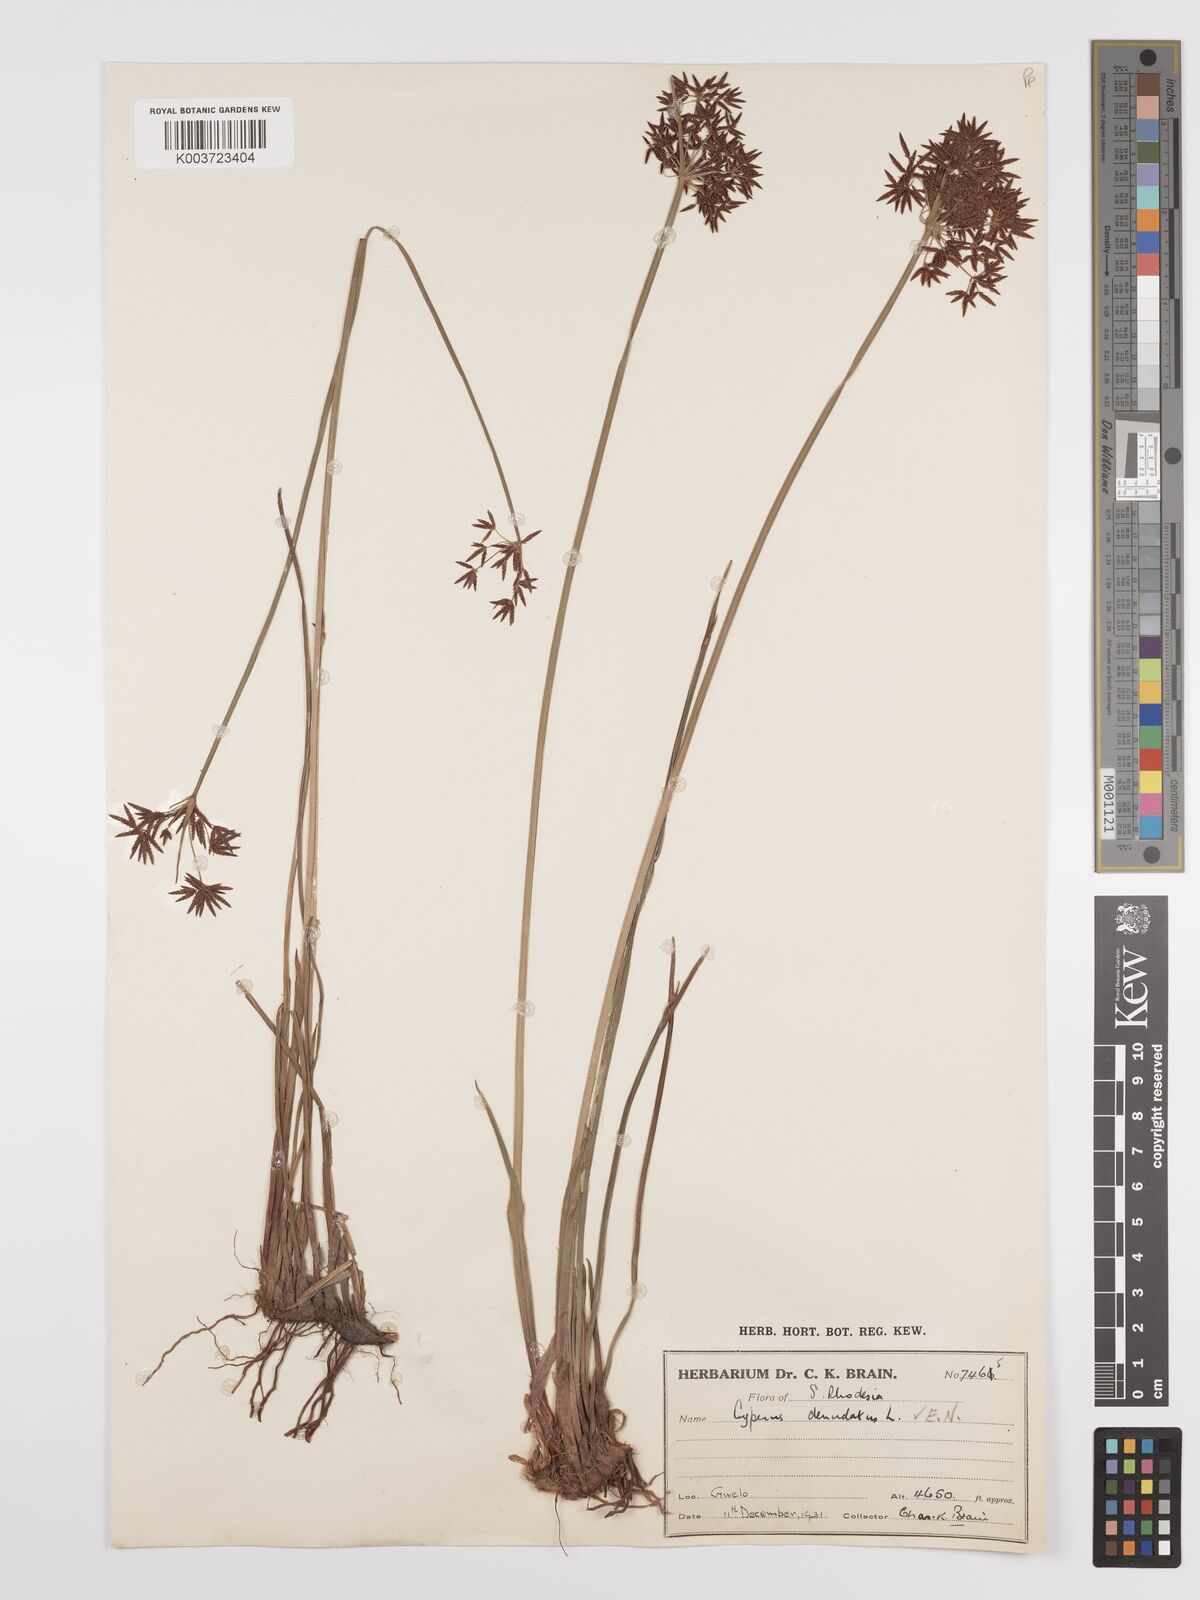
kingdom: Plantae
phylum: Tracheophyta
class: Liliopsida
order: Poales
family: Cyperaceae
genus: Cyperus
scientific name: Cyperus denudatus
